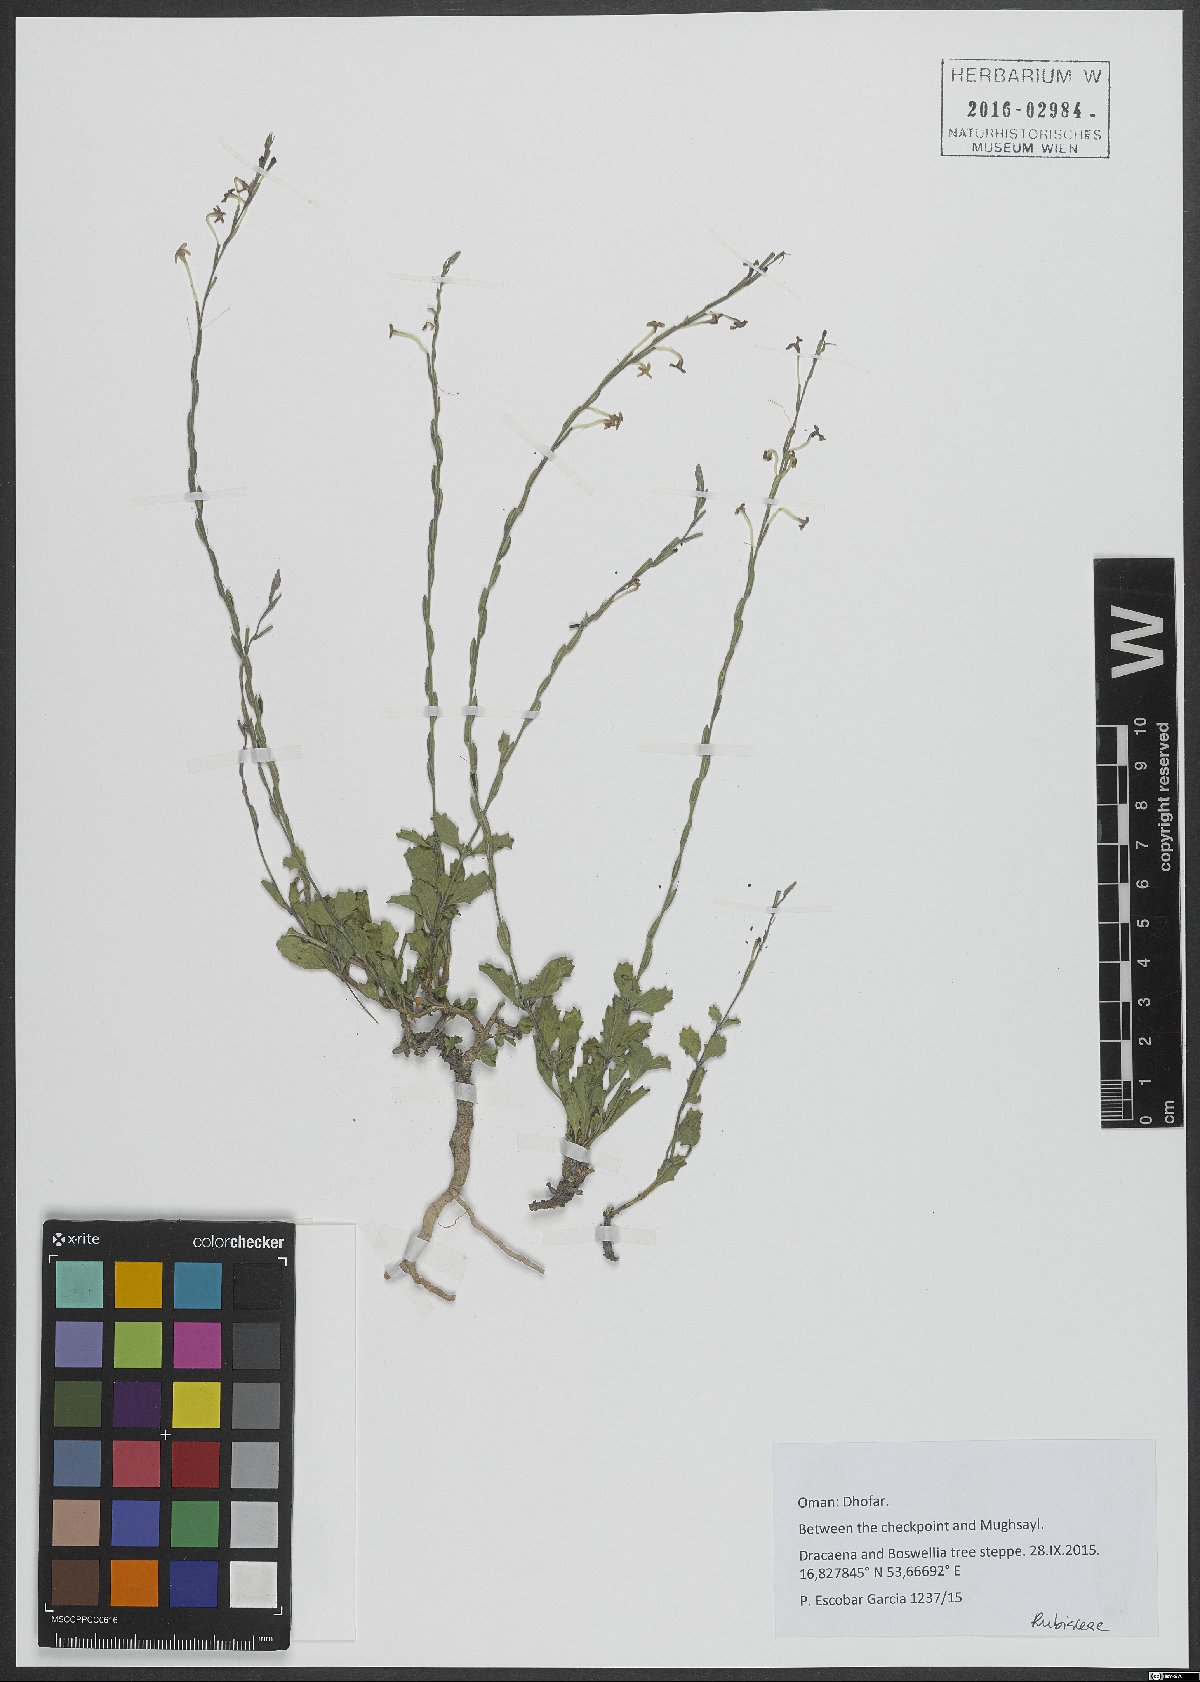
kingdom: Plantae
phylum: Tracheophyta
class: Magnoliopsida
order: Gentianales
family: Rubiaceae
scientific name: Rubiaceae
